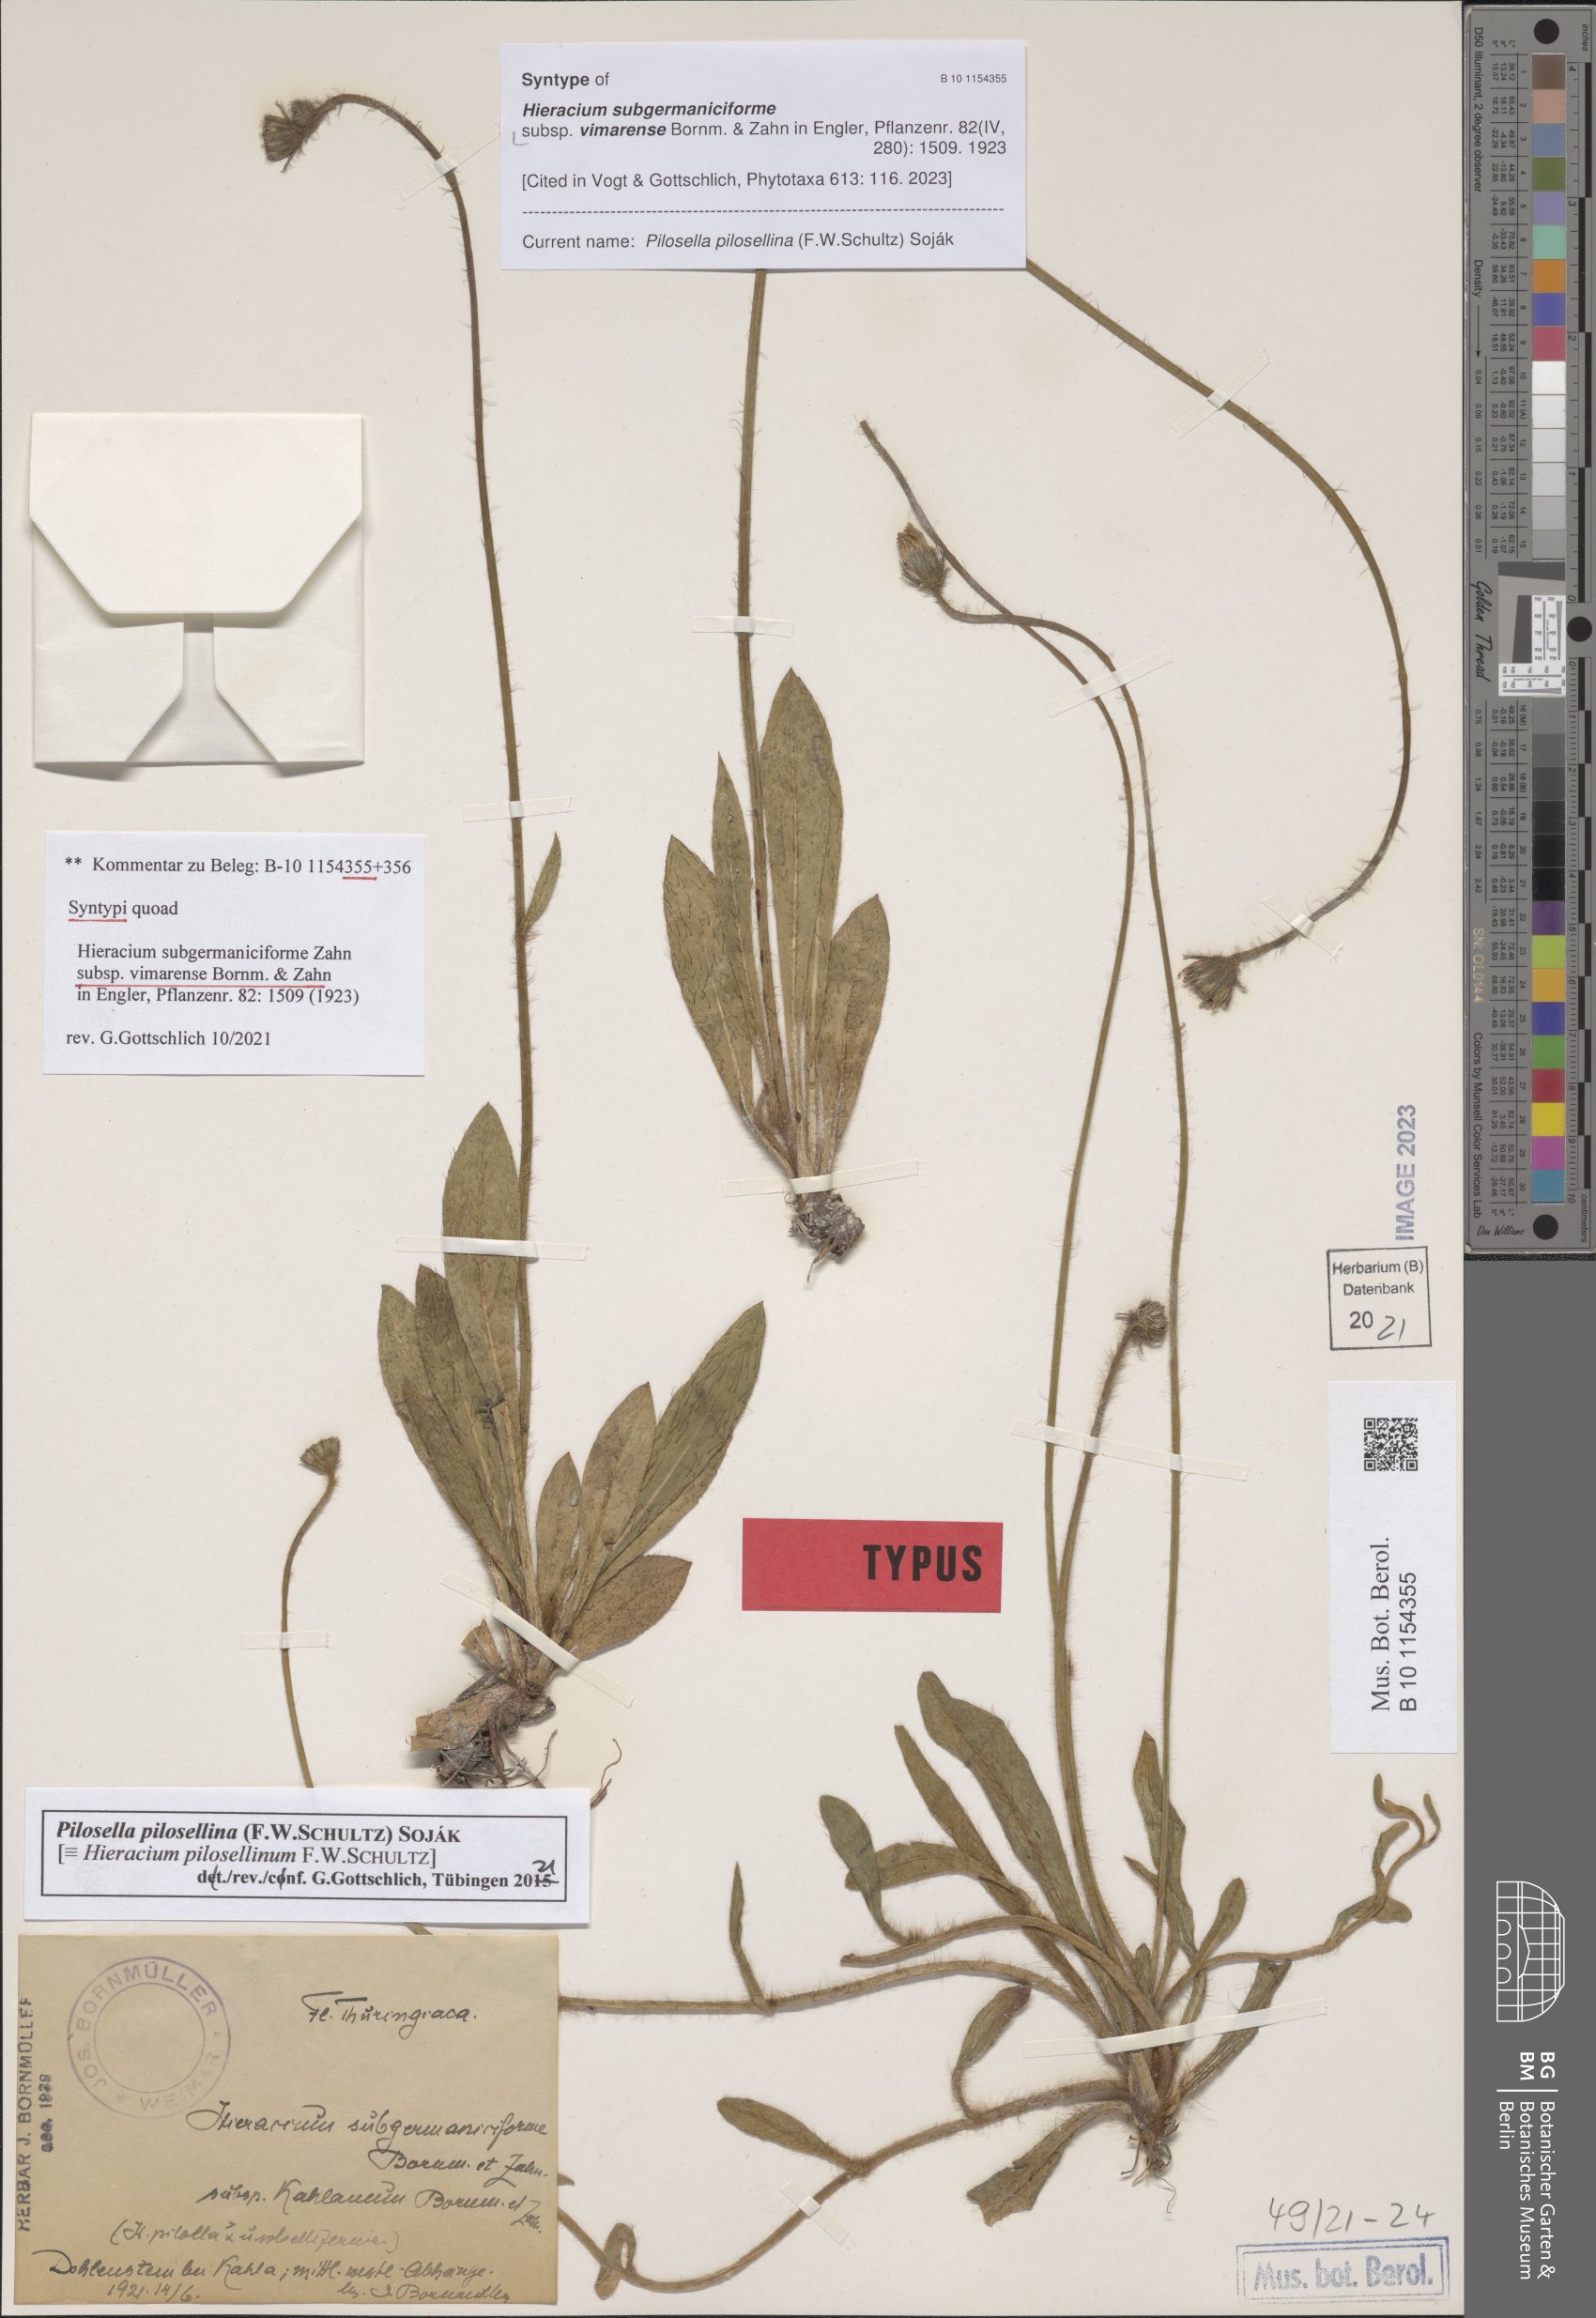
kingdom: Plantae
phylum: Tracheophyta
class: Magnoliopsida
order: Asterales
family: Asteraceae
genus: Pilosella
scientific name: Pilosella fallacina
